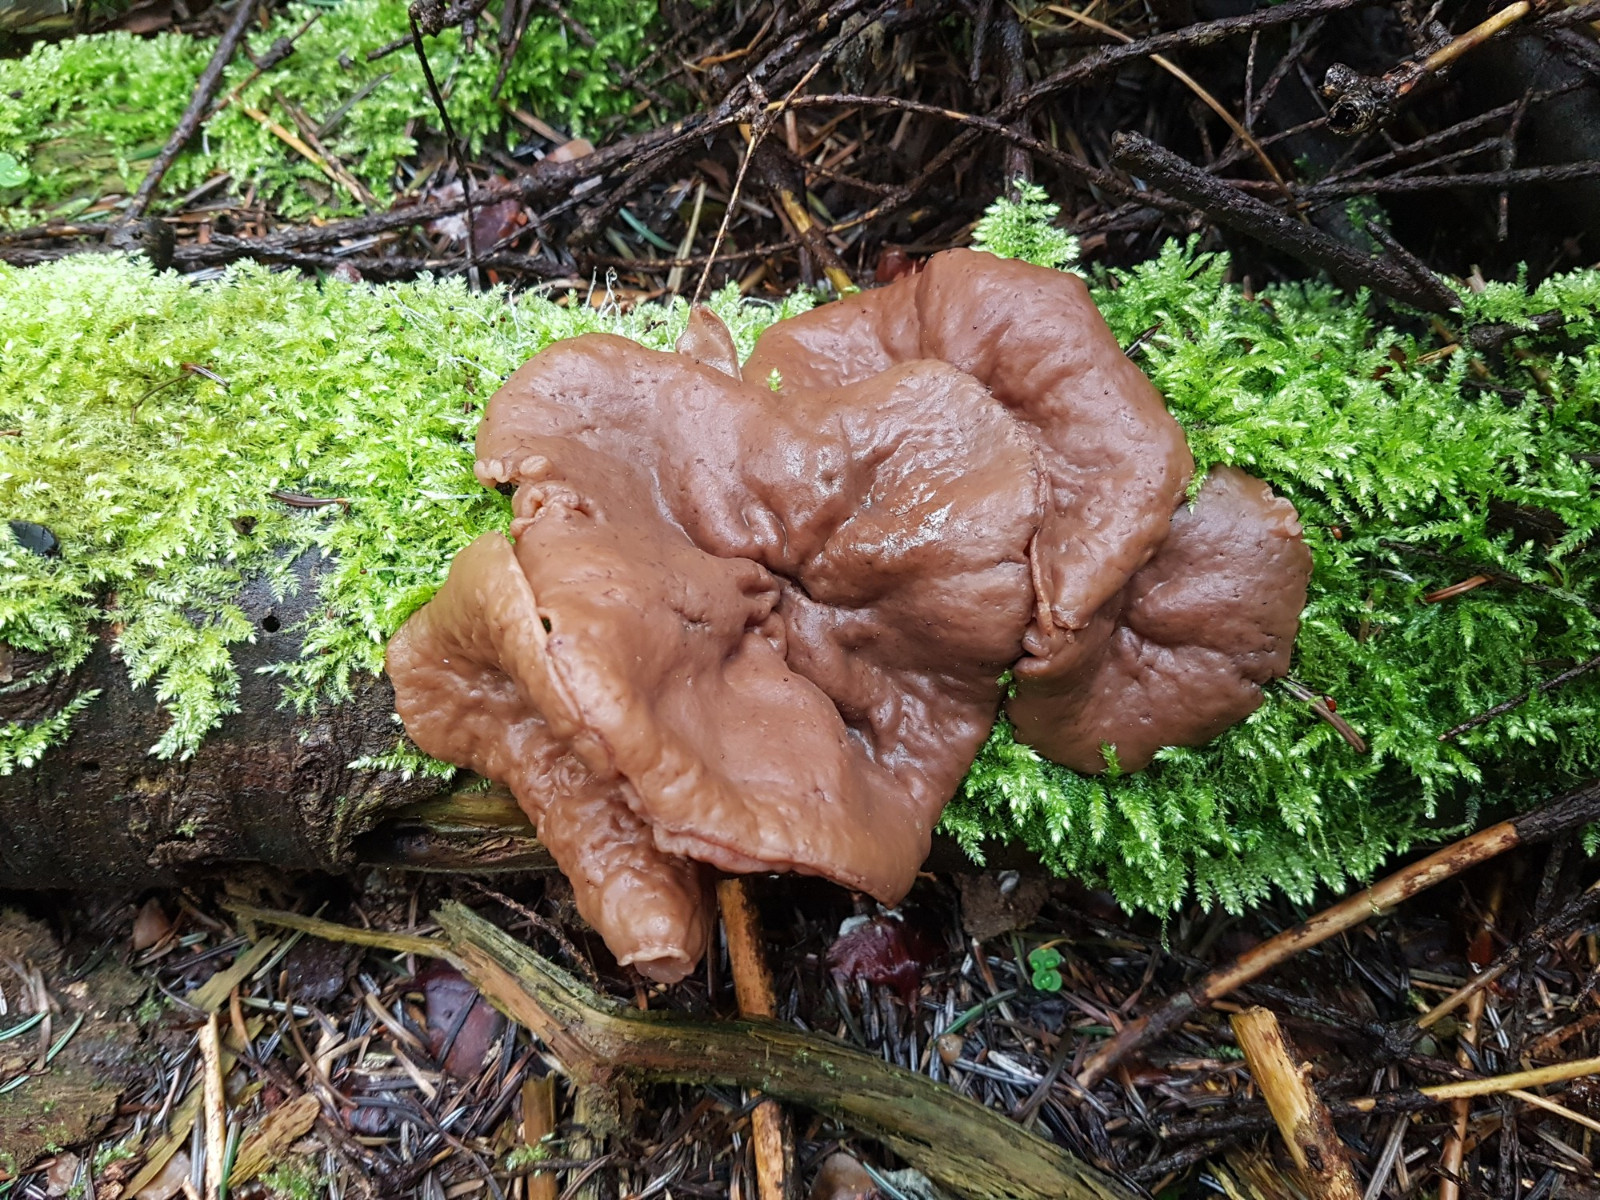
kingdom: Fungi
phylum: Ascomycota
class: Pezizomycetes
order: Pezizales
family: Discinaceae
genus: Discina
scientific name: Discina ancilis
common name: udbredt stenmorkel
